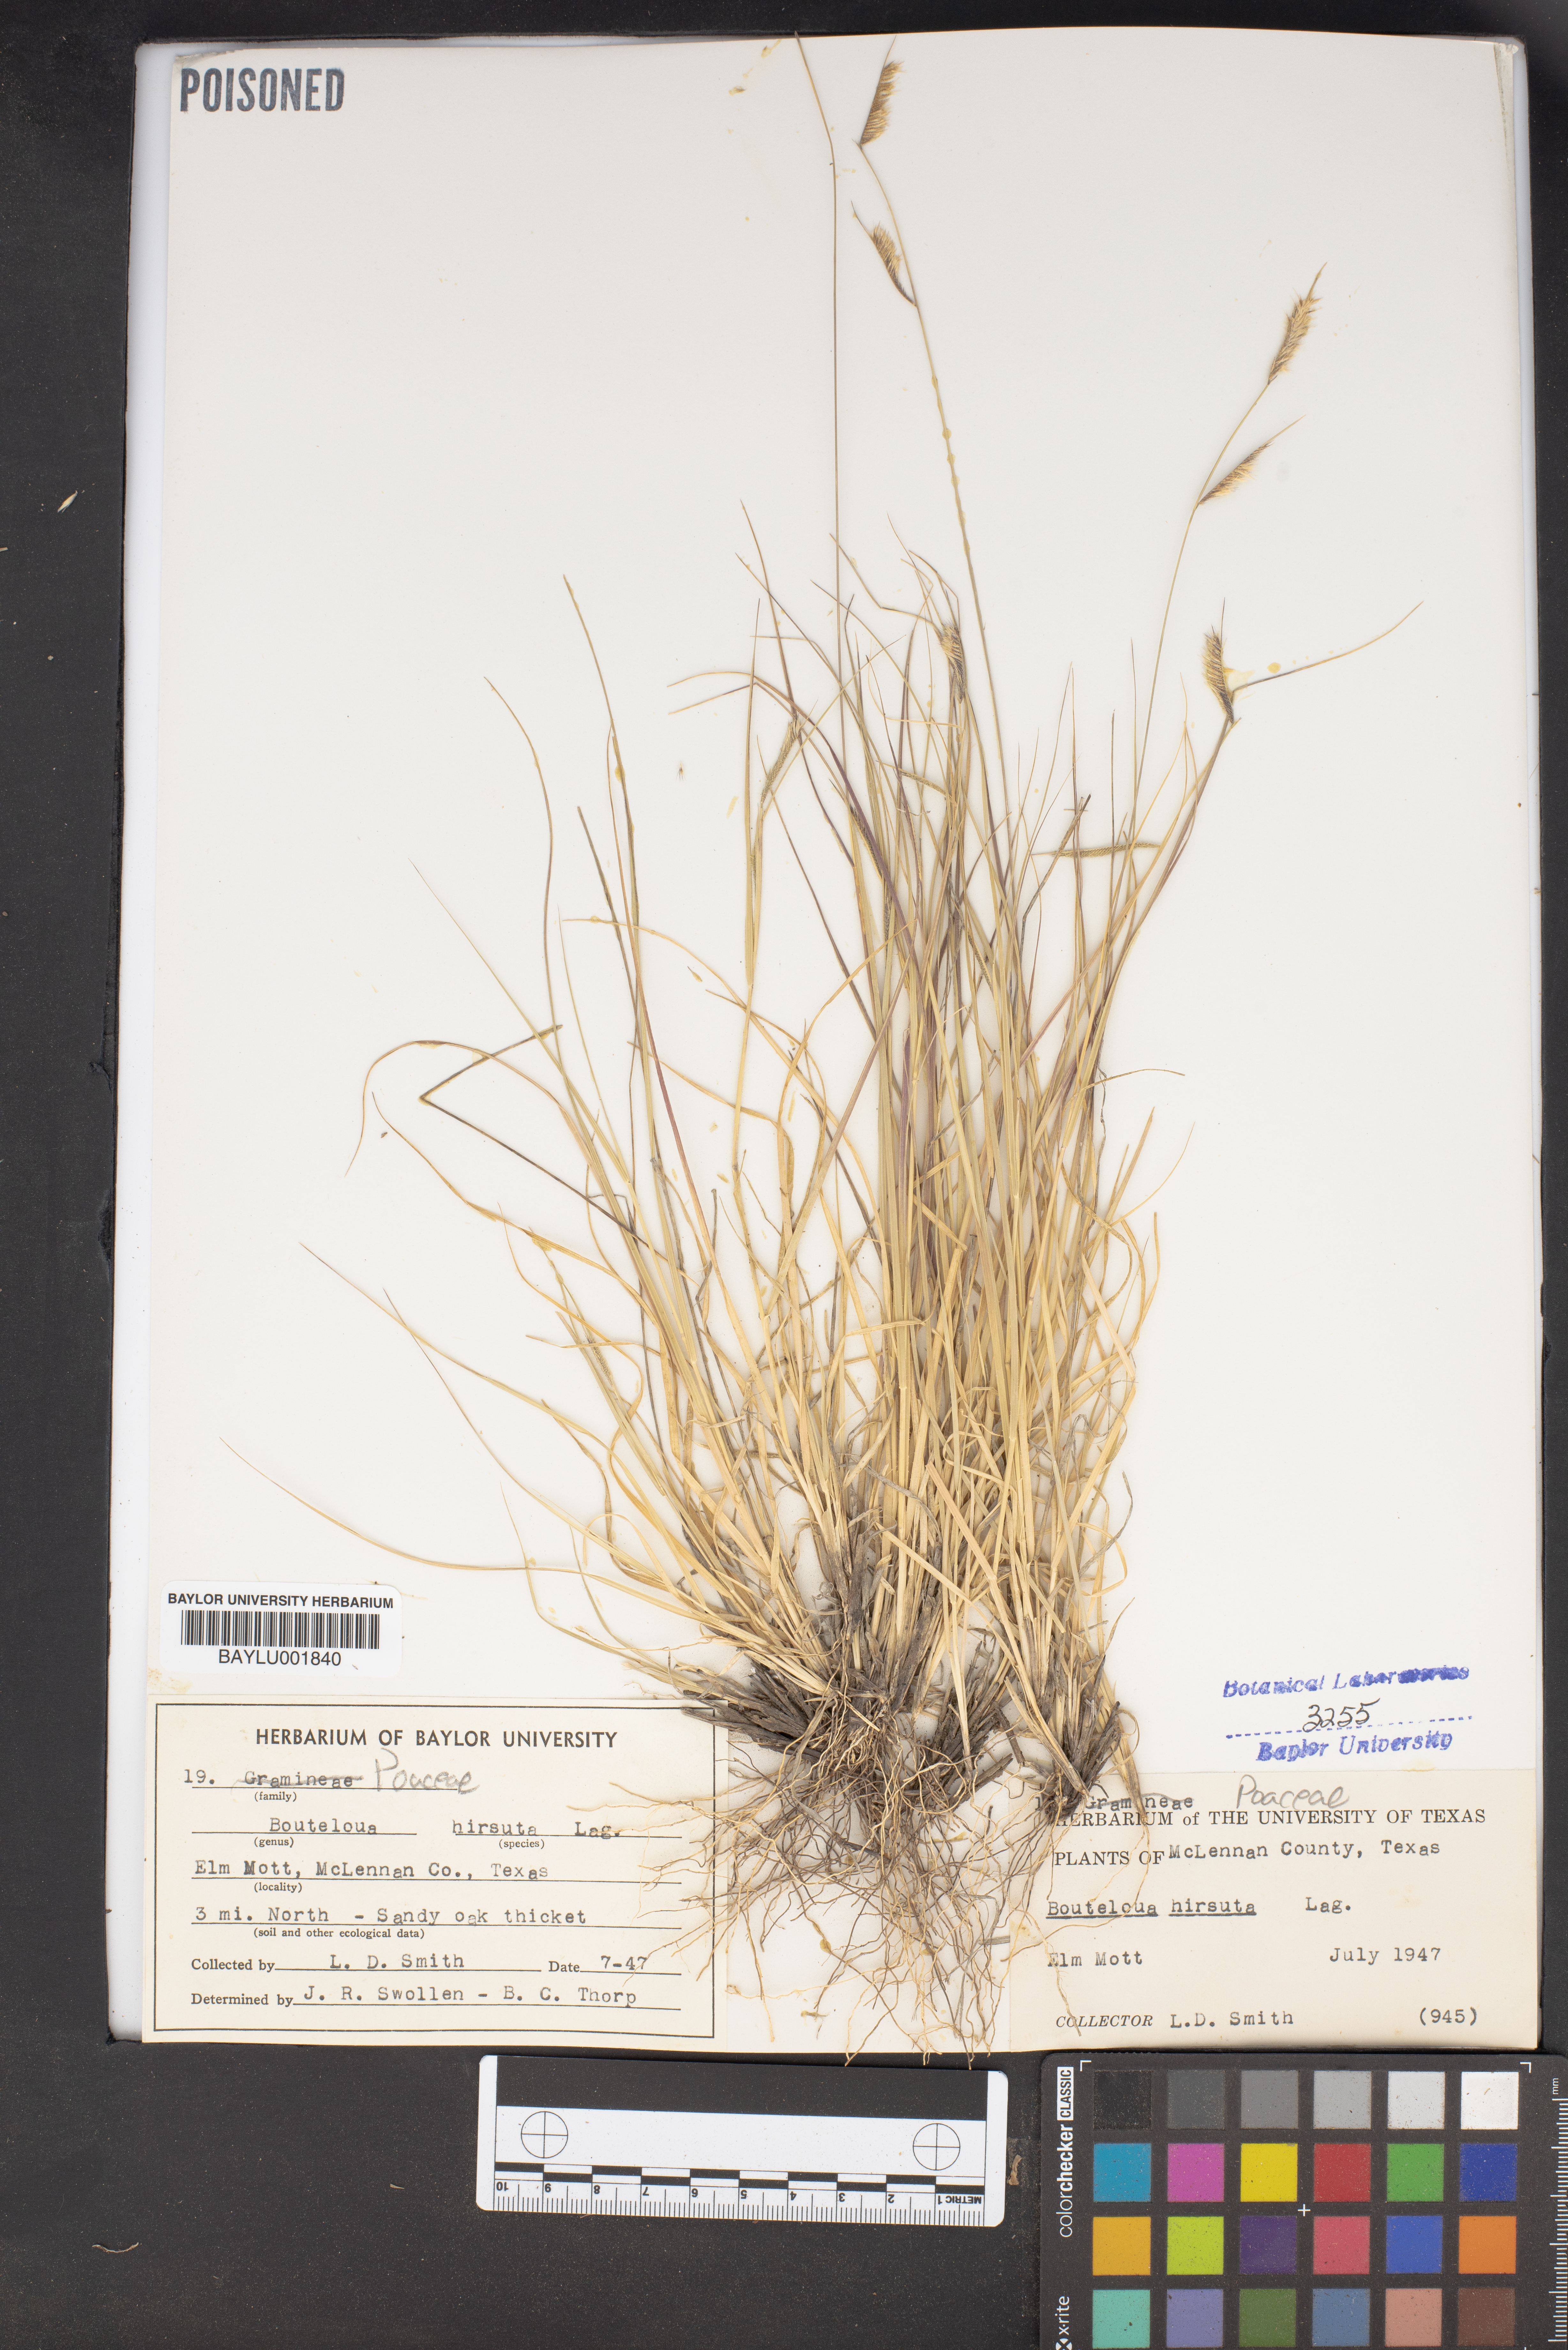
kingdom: Plantae
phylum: Tracheophyta
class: Liliopsida
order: Poales
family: Poaceae
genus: Bouteloua
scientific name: Bouteloua hirsuta
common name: Hairy grama
